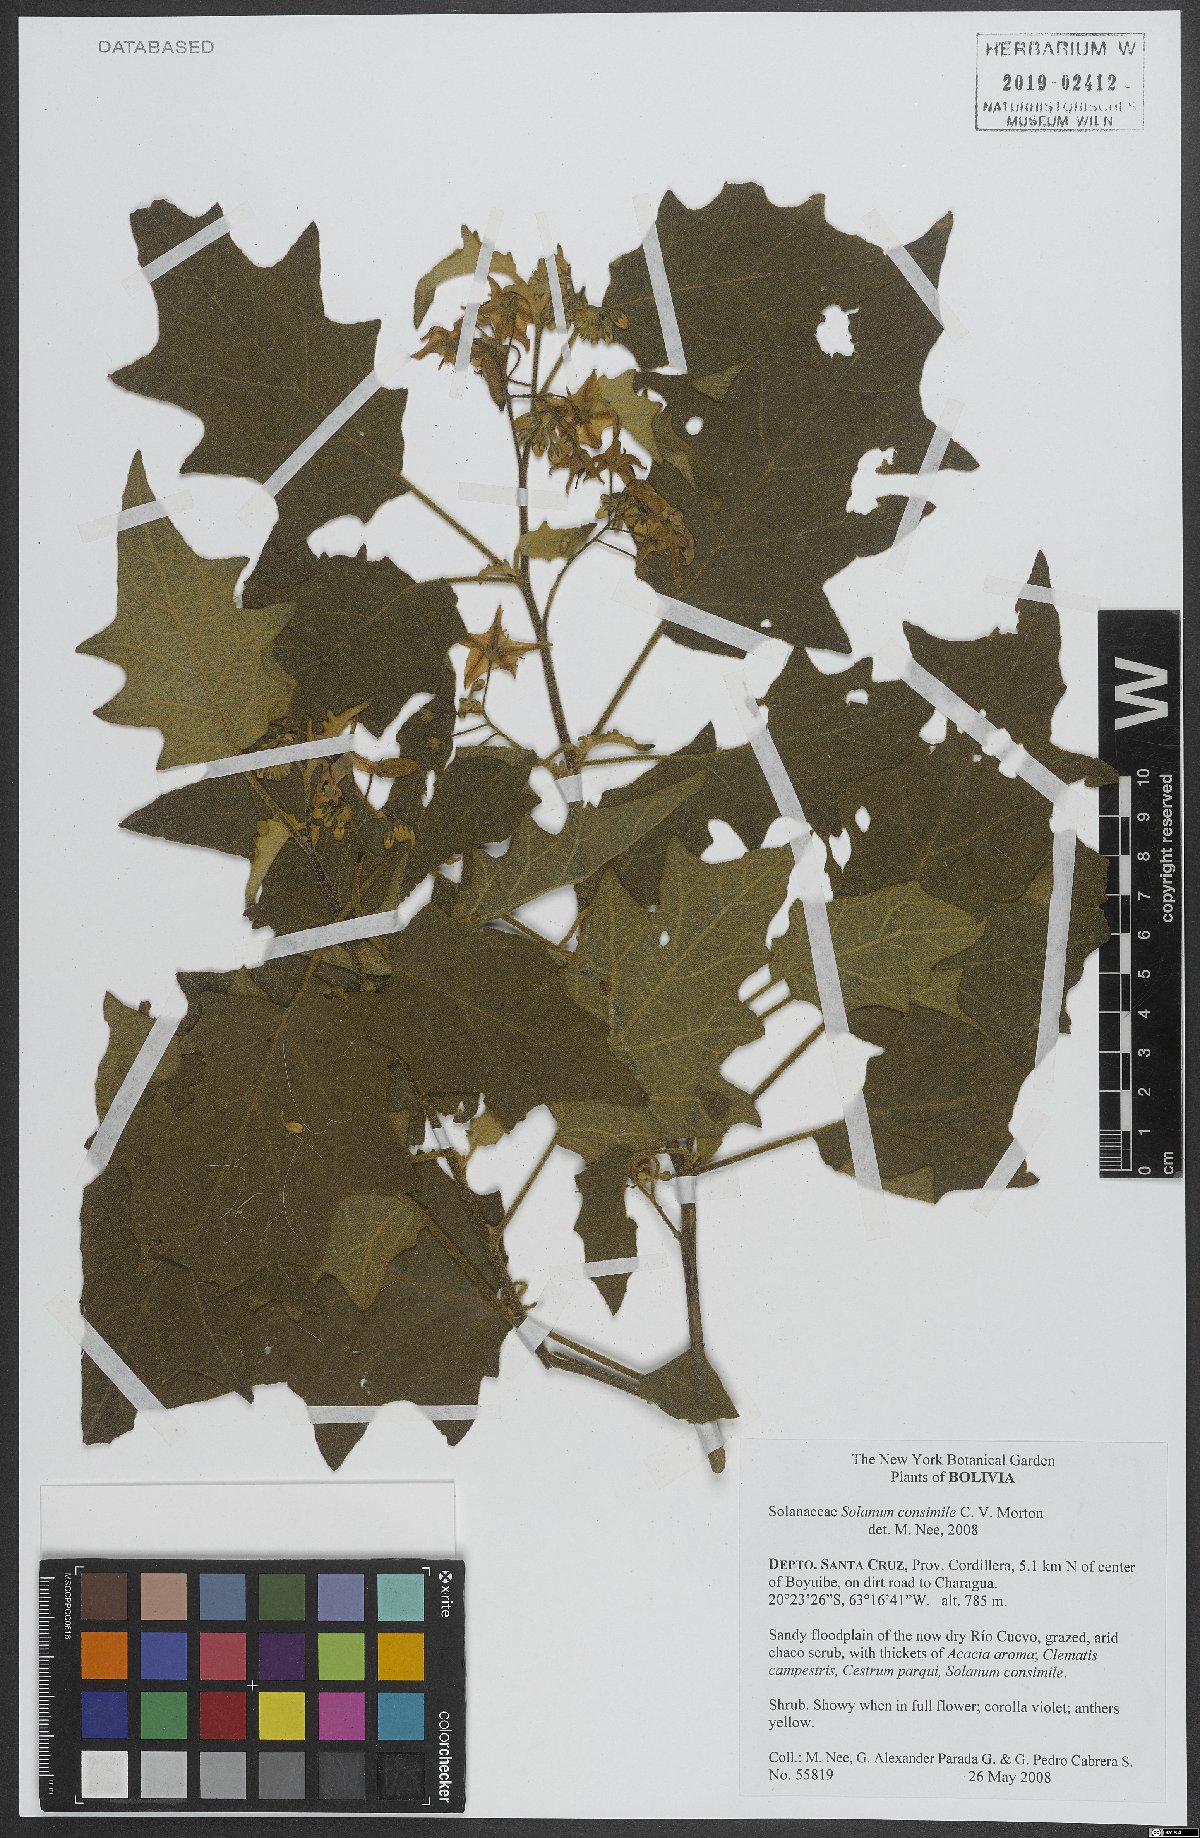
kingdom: Plantae
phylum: Tracheophyta
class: Magnoliopsida
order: Solanales
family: Solanaceae
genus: Solanum
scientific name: Solanum consimile
